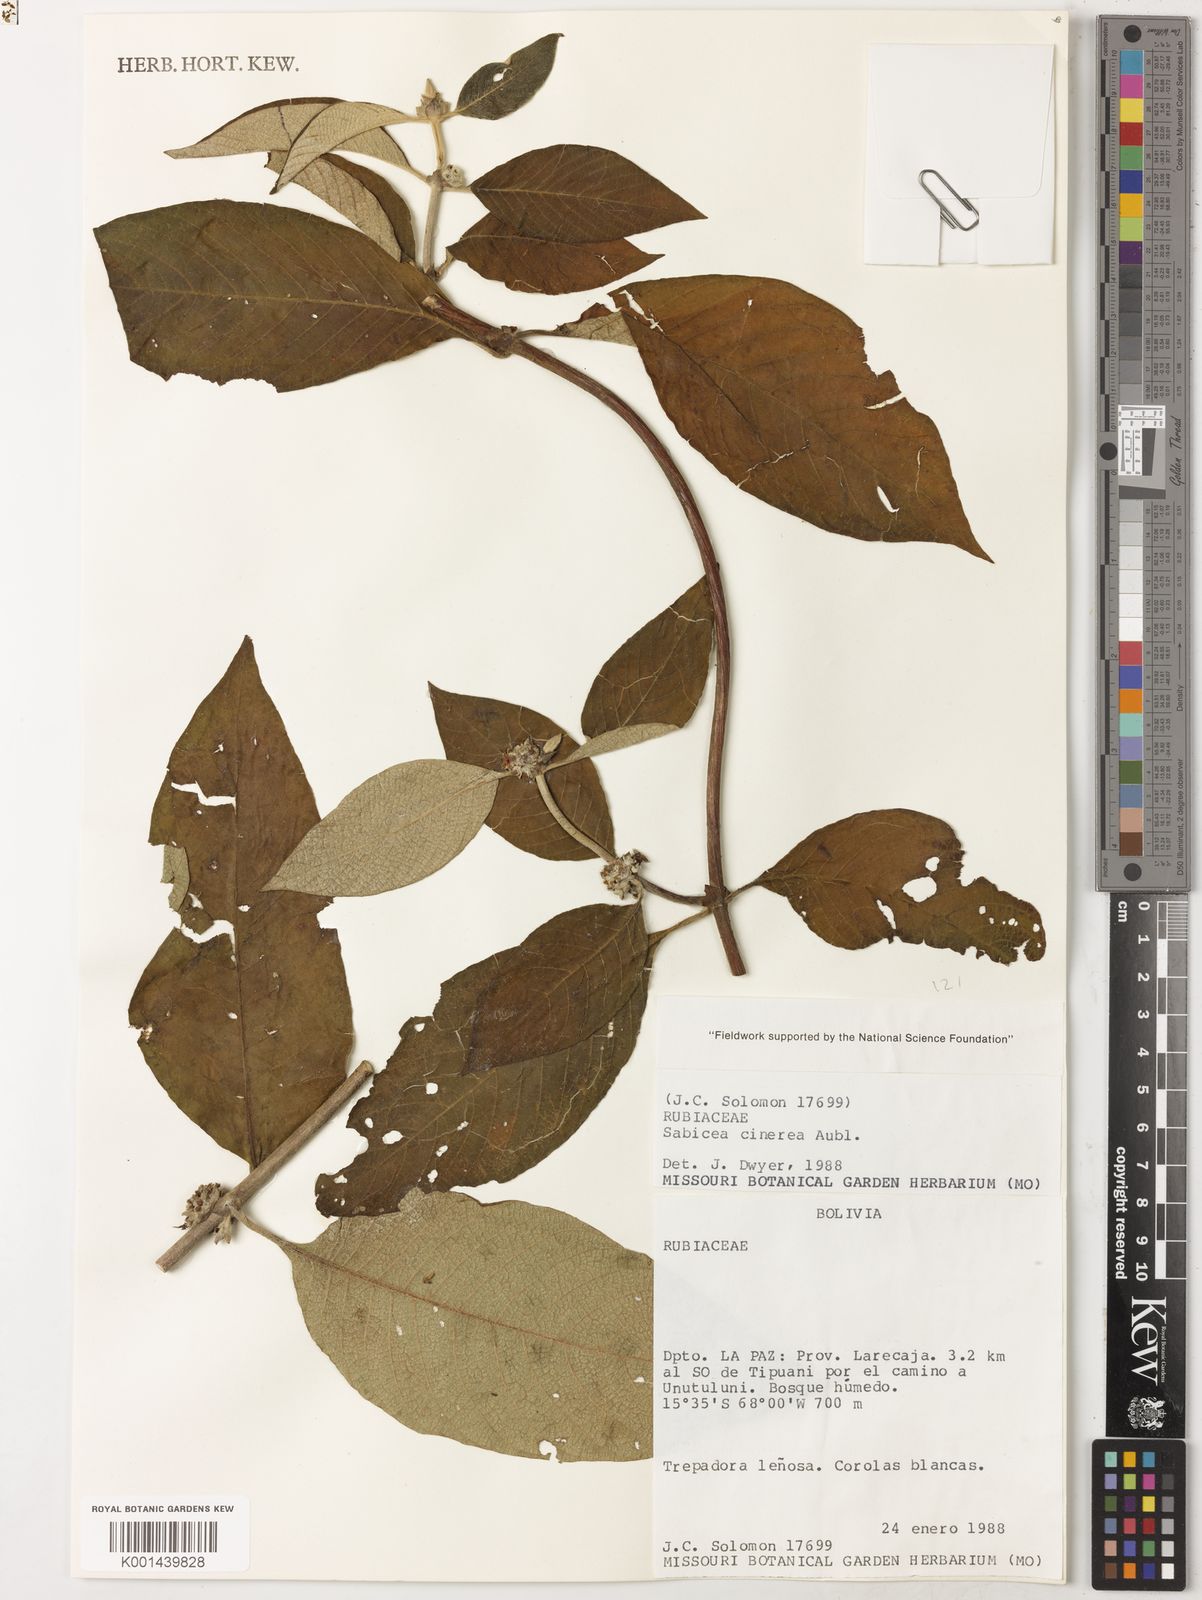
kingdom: Plantae
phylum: Tracheophyta
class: Magnoliopsida
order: Gentianales
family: Rubiaceae
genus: Sabicea
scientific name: Sabicea cinerea
